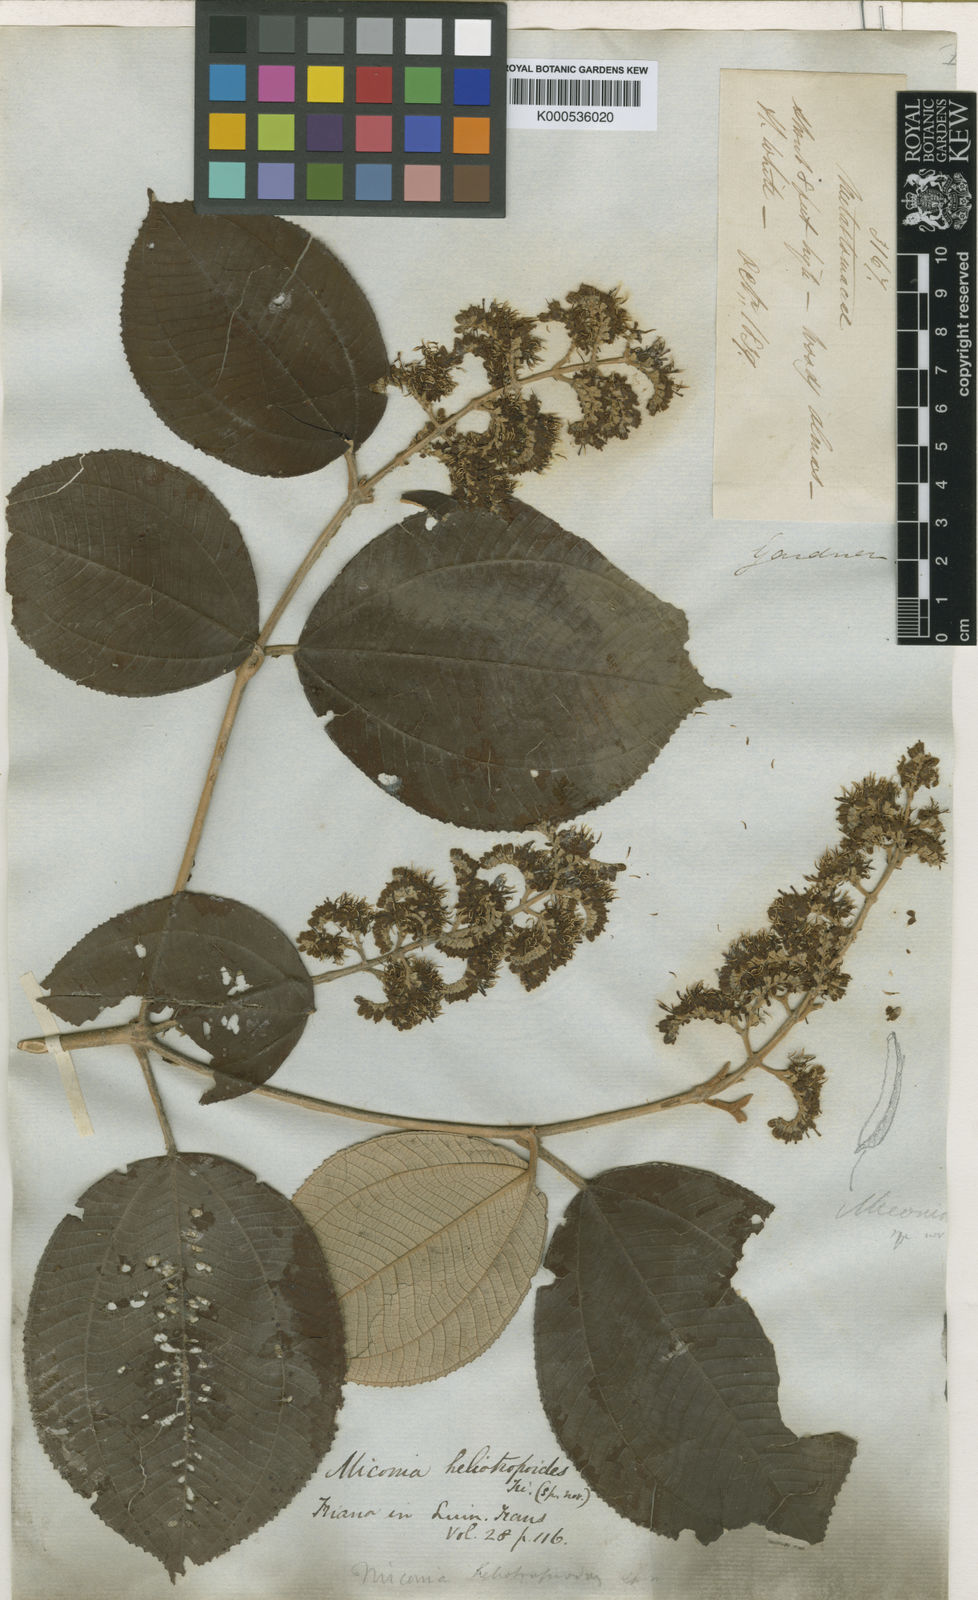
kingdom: Plantae
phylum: Tracheophyta
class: Magnoliopsida
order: Myrtales
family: Melastomataceae
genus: Miconia
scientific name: Miconia heliotropoides
